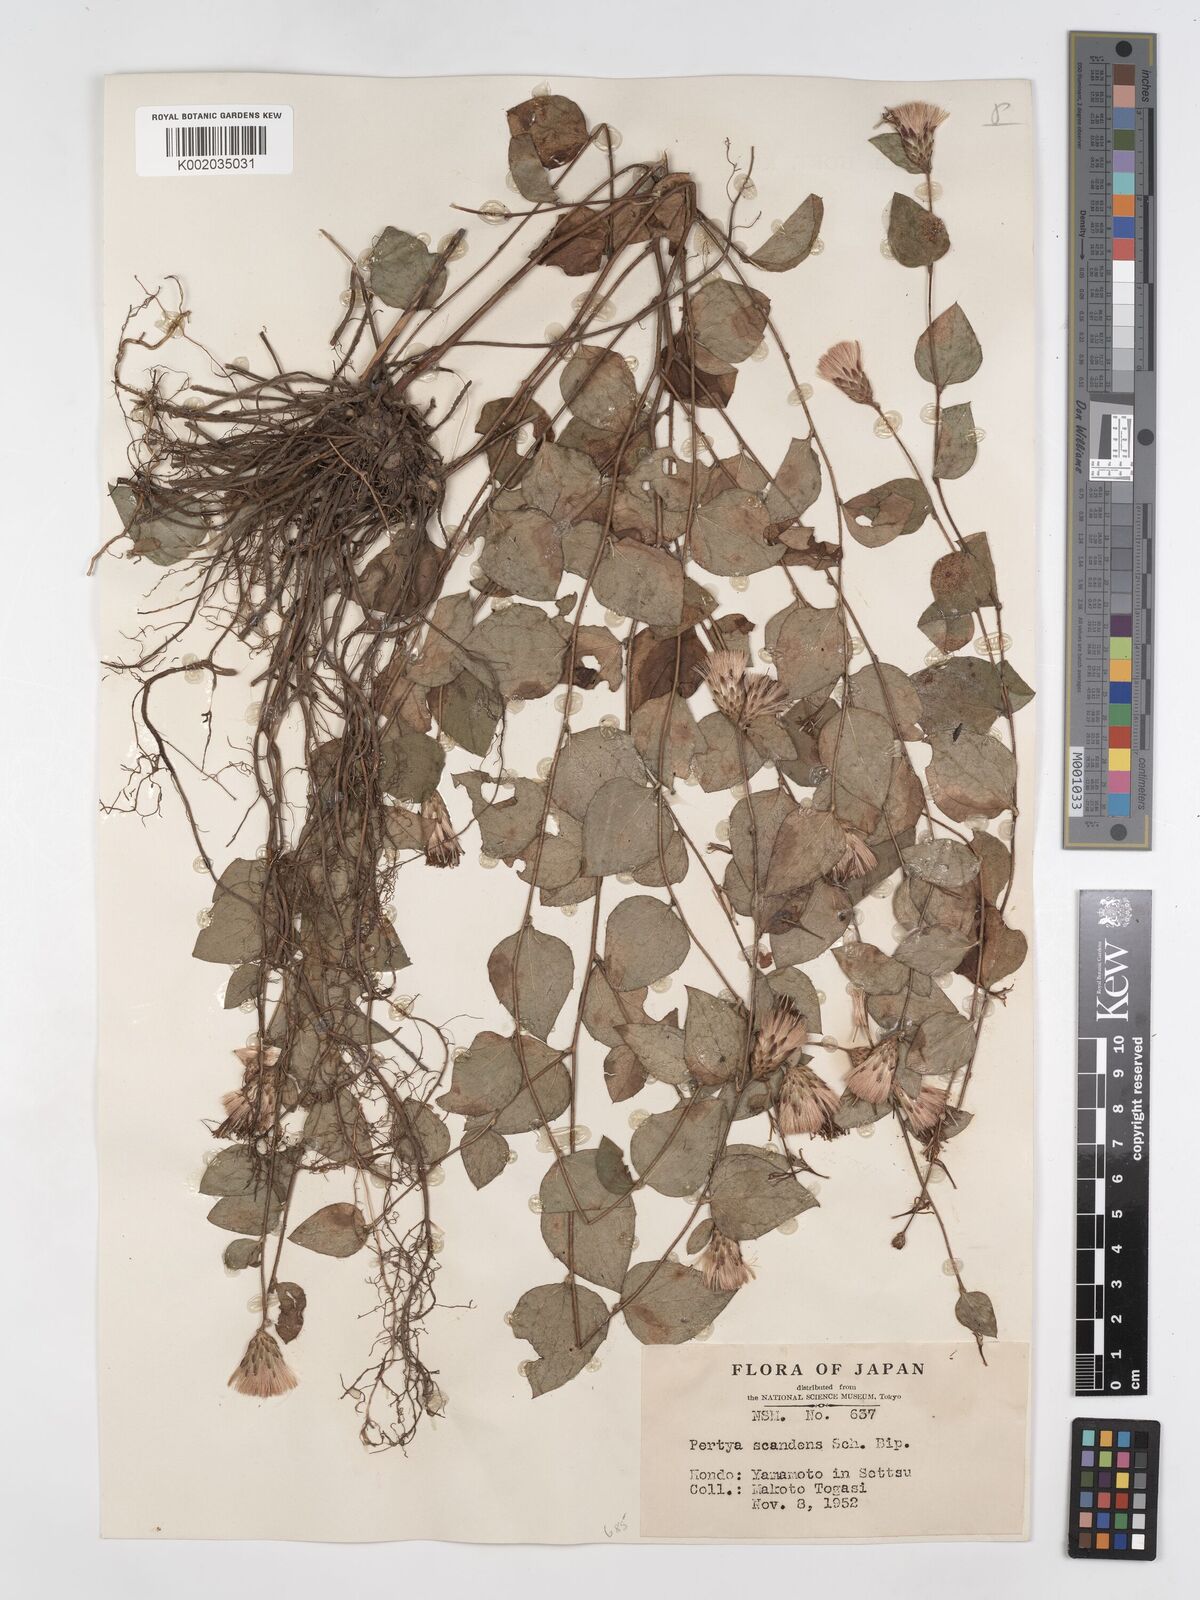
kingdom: Plantae
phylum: Tracheophyta
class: Magnoliopsida
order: Asterales
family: Asteraceae
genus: Pertya
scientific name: Pertya scandens
